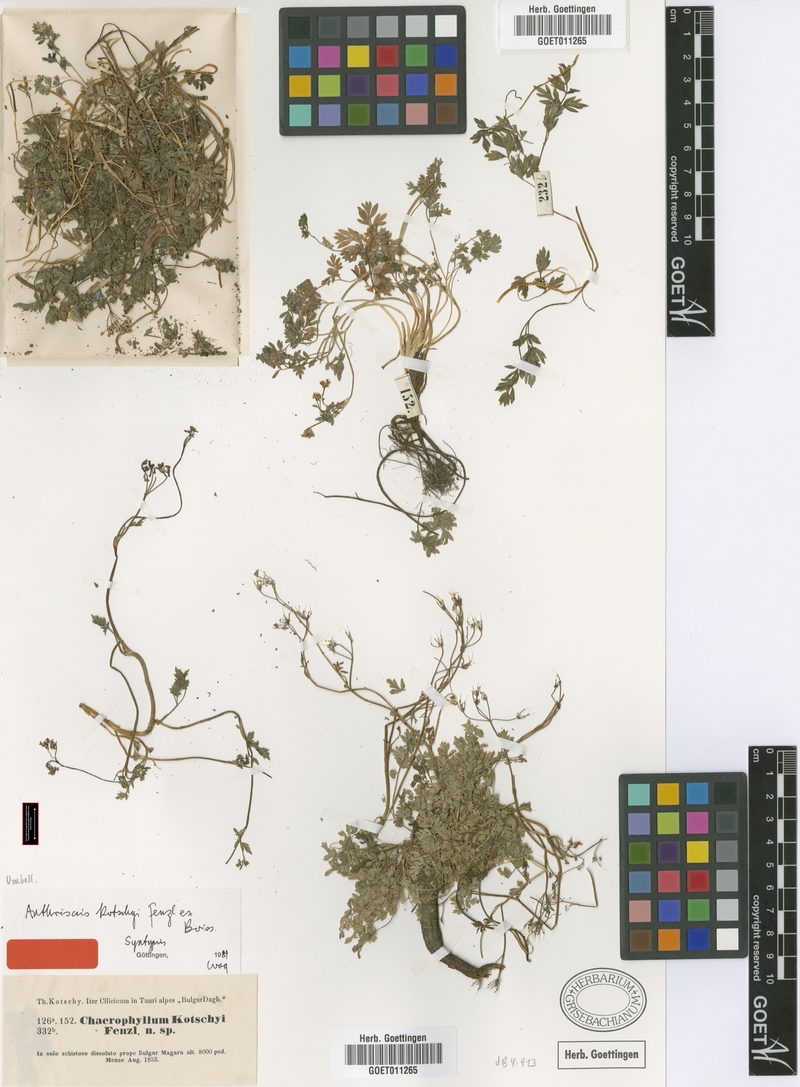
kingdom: Plantae
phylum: Tracheophyta
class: Magnoliopsida
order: Apiales
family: Apiaceae
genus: Anthriscus
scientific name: Anthriscus kotschyi
